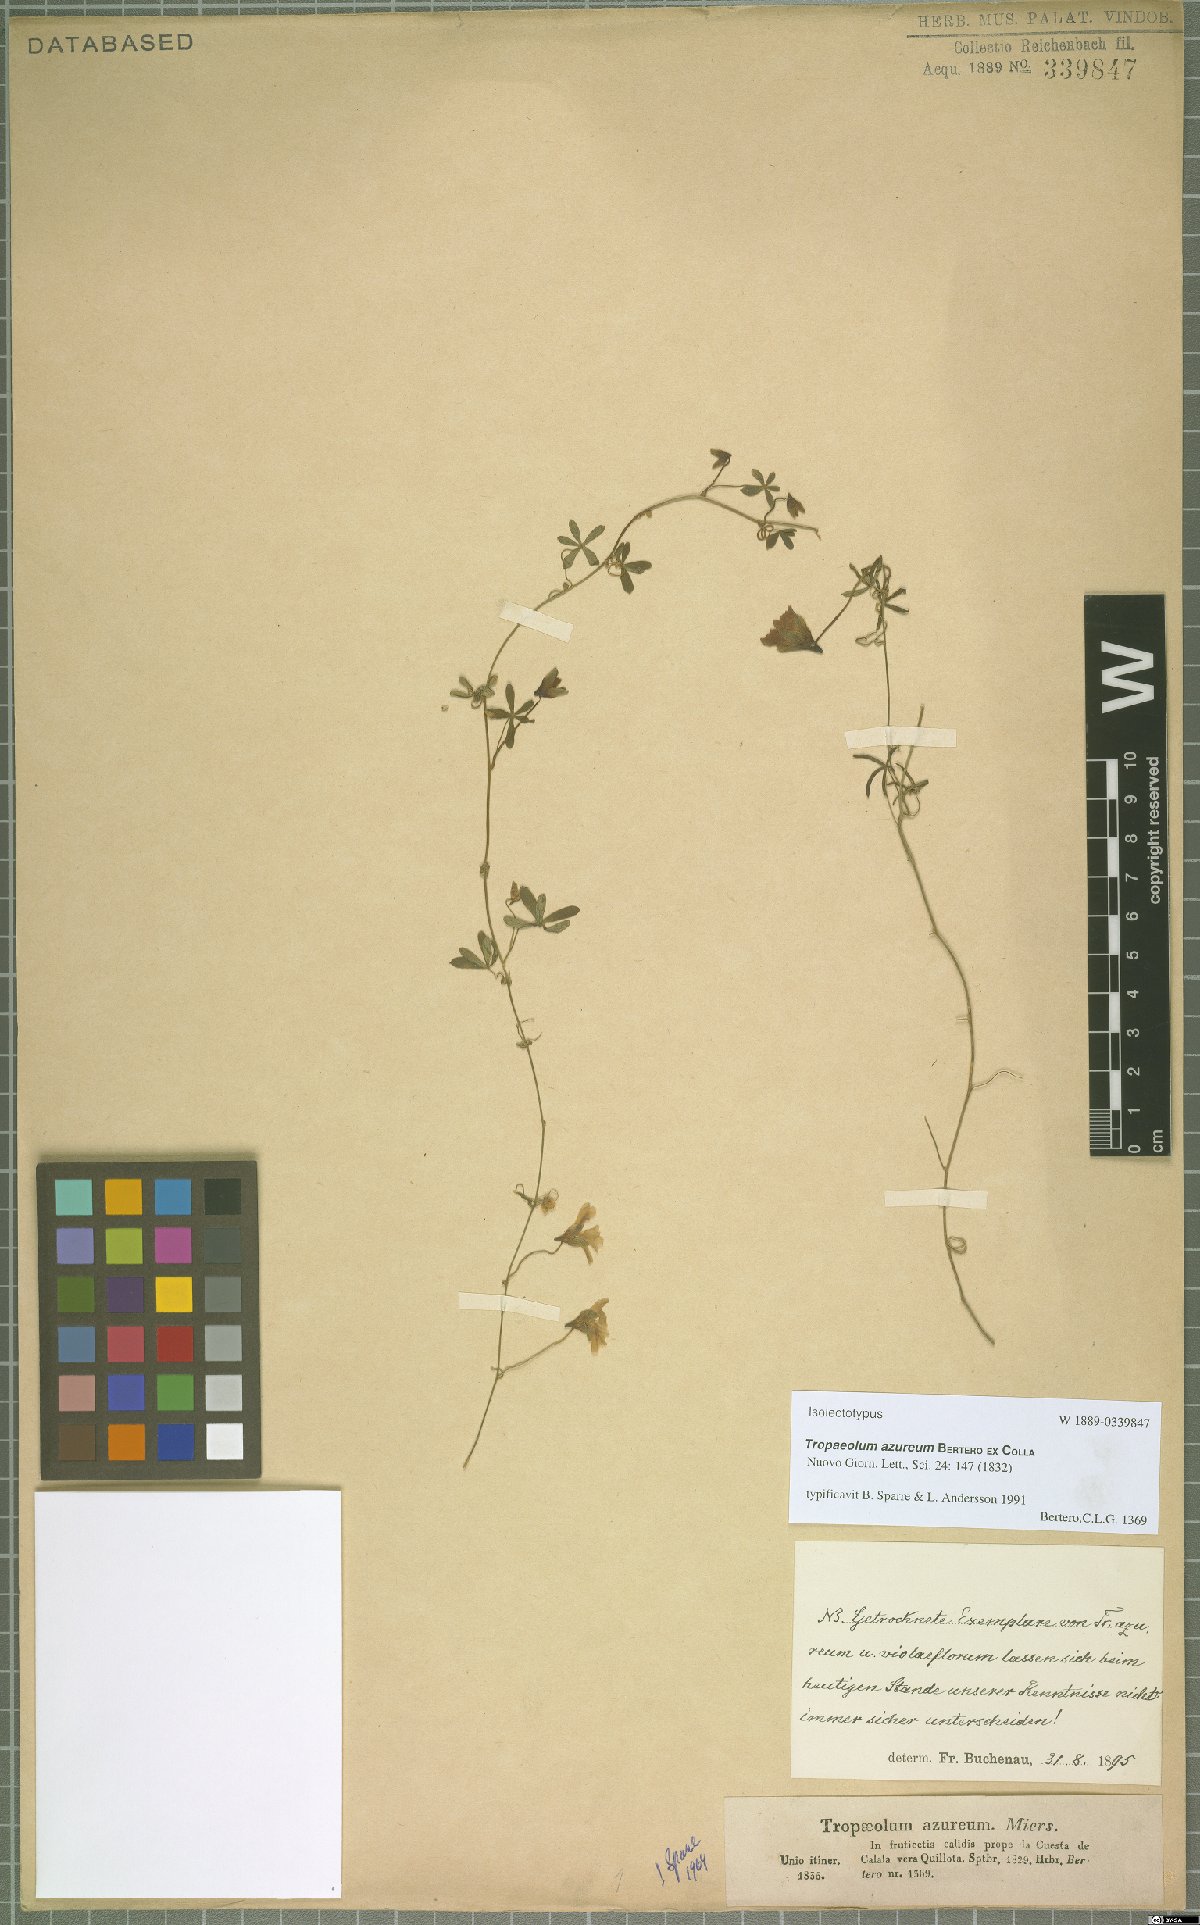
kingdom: Plantae
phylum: Tracheophyta
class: Magnoliopsida
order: Brassicales
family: Tropaeolaceae
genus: Tropaeolum
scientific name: Tropaeolum azureum
